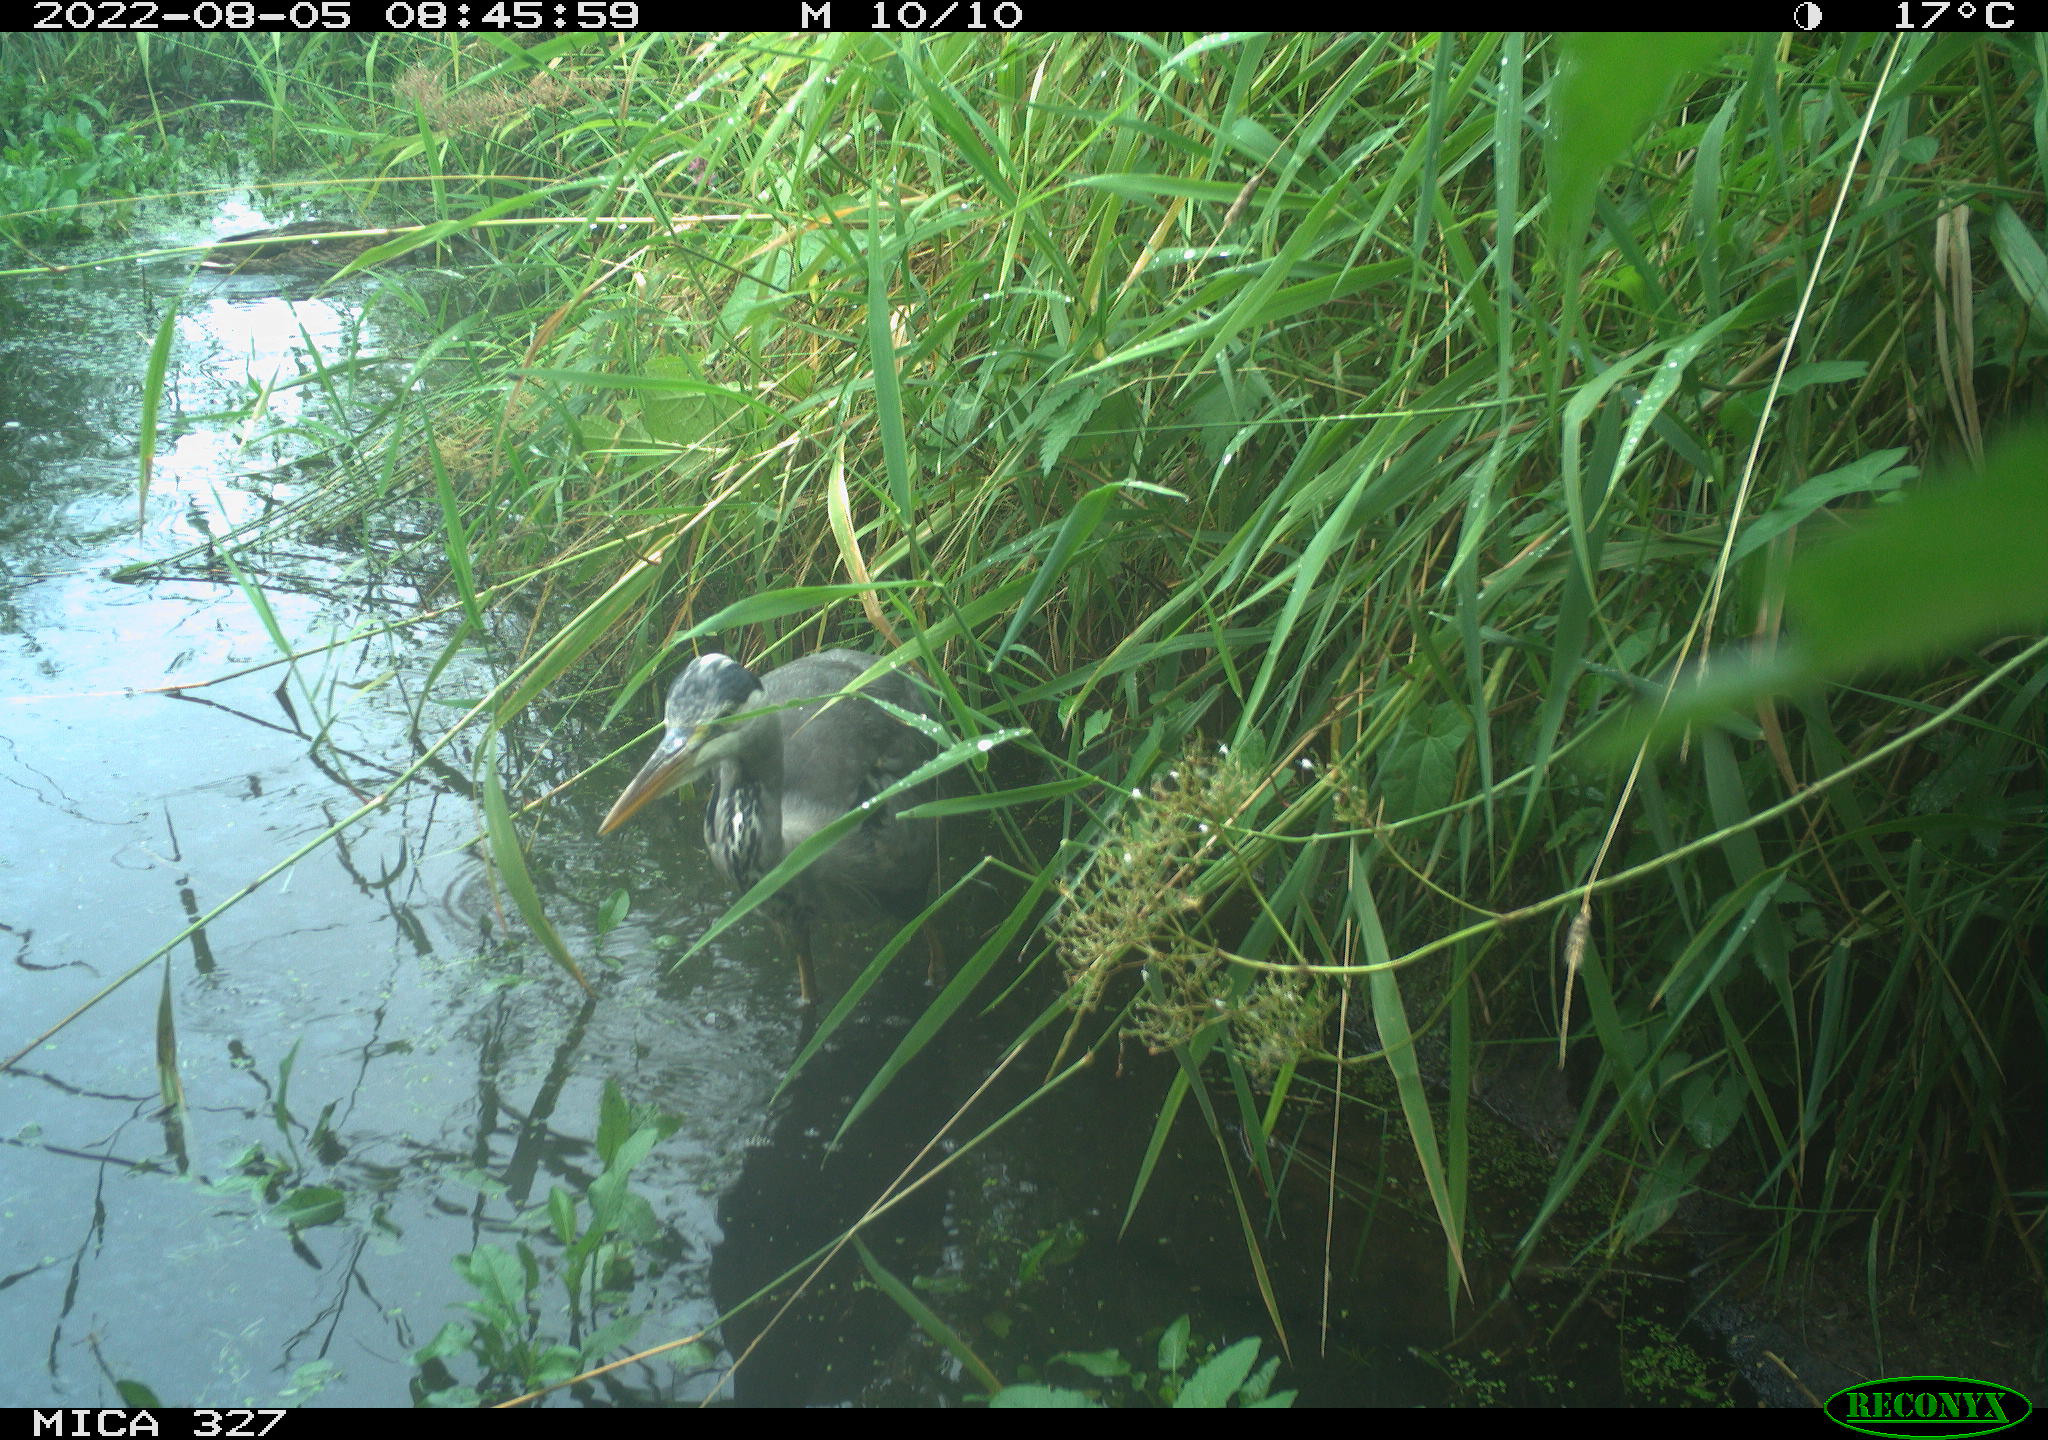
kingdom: Animalia
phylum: Chordata
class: Aves
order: Anseriformes
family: Anatidae
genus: Anas
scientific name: Anas
